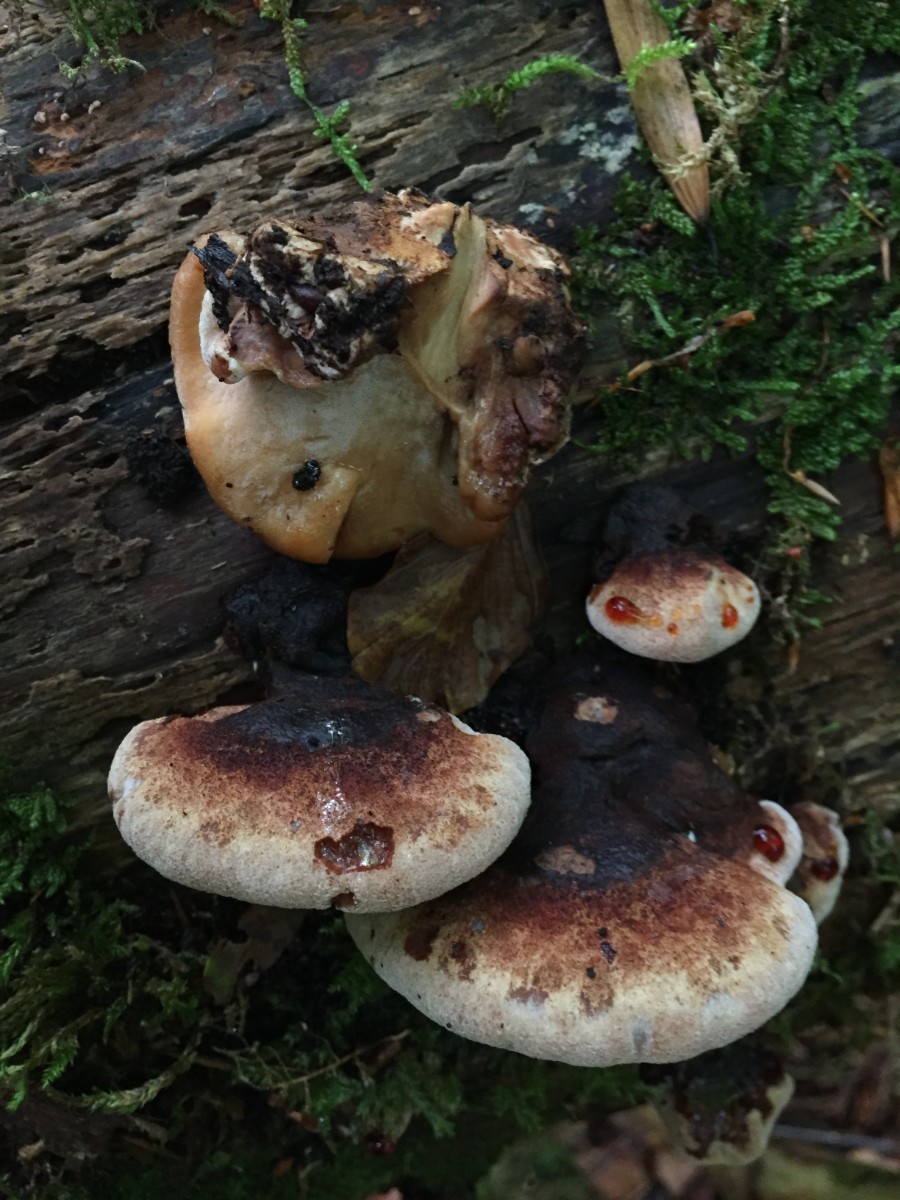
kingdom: Fungi
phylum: Basidiomycota
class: Agaricomycetes
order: Polyporales
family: Ischnodermataceae
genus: Ischnoderma
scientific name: Ischnoderma benzoinum
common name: gran-tjæreporesvamp
